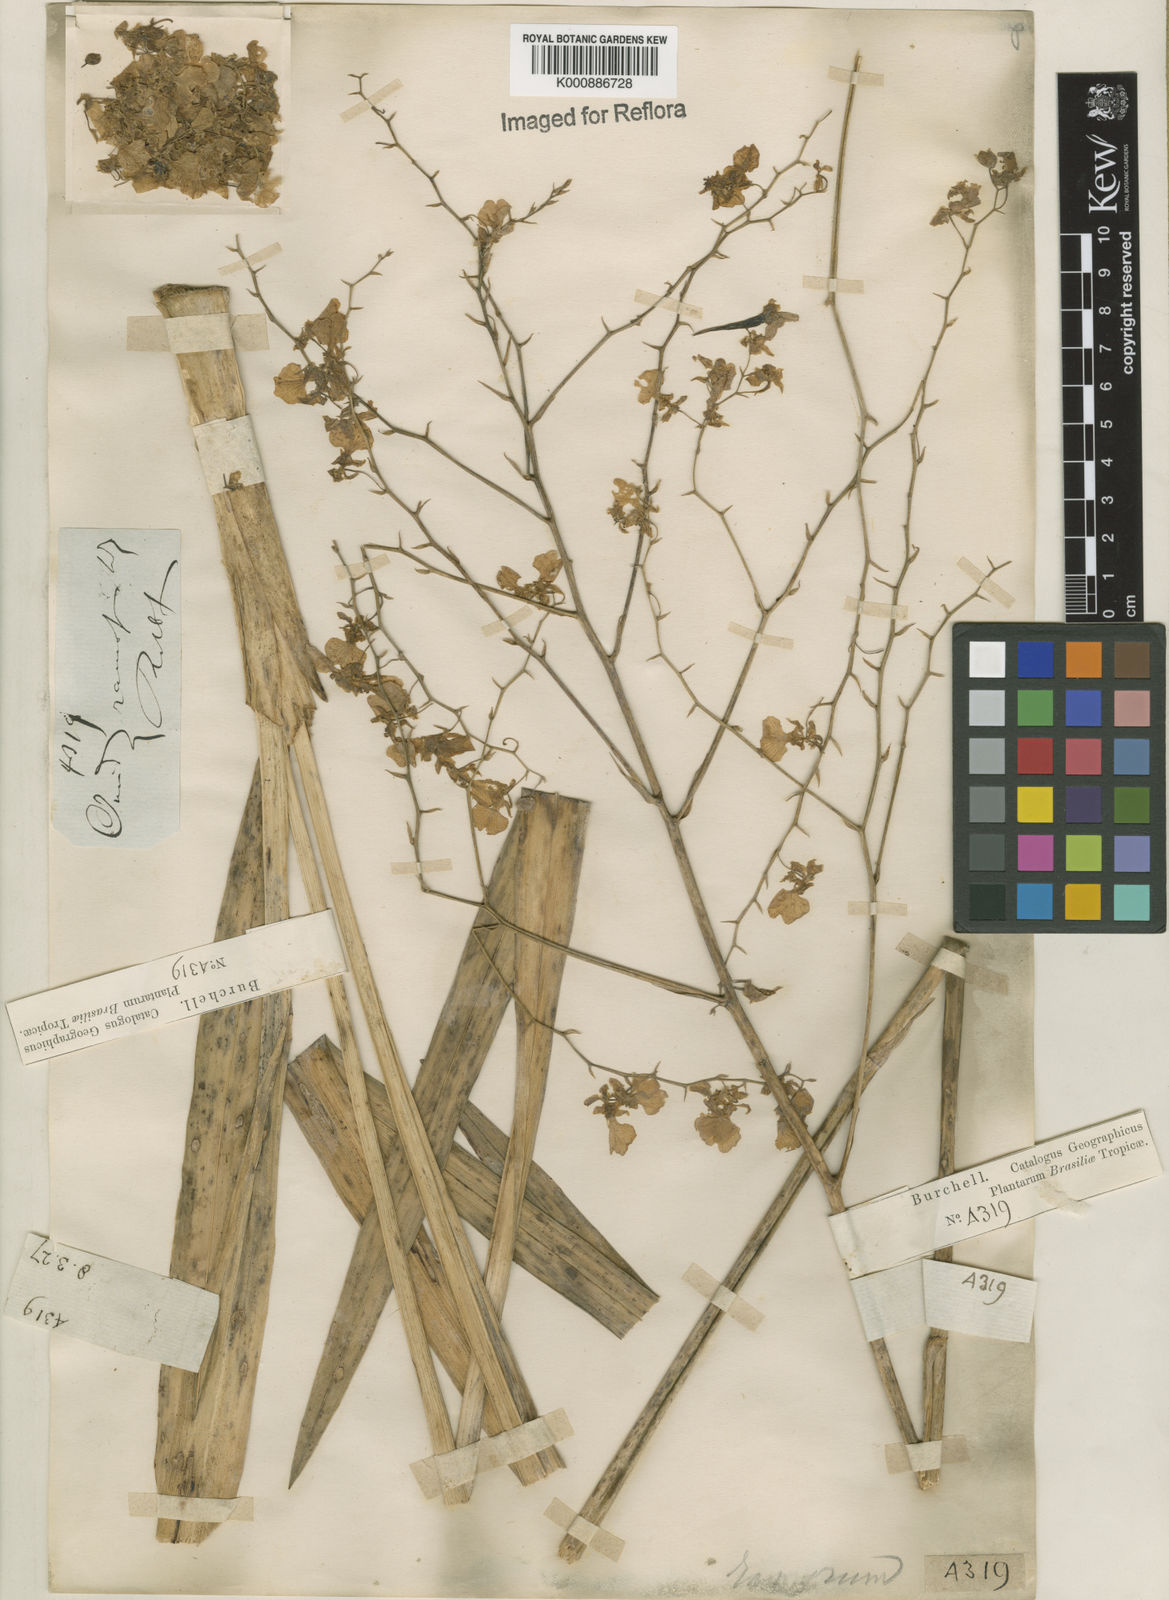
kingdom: Plantae
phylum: Tracheophyta
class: Liliopsida
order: Asparagales
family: Orchidaceae
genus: Gomesa
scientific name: Gomesa ramosa
